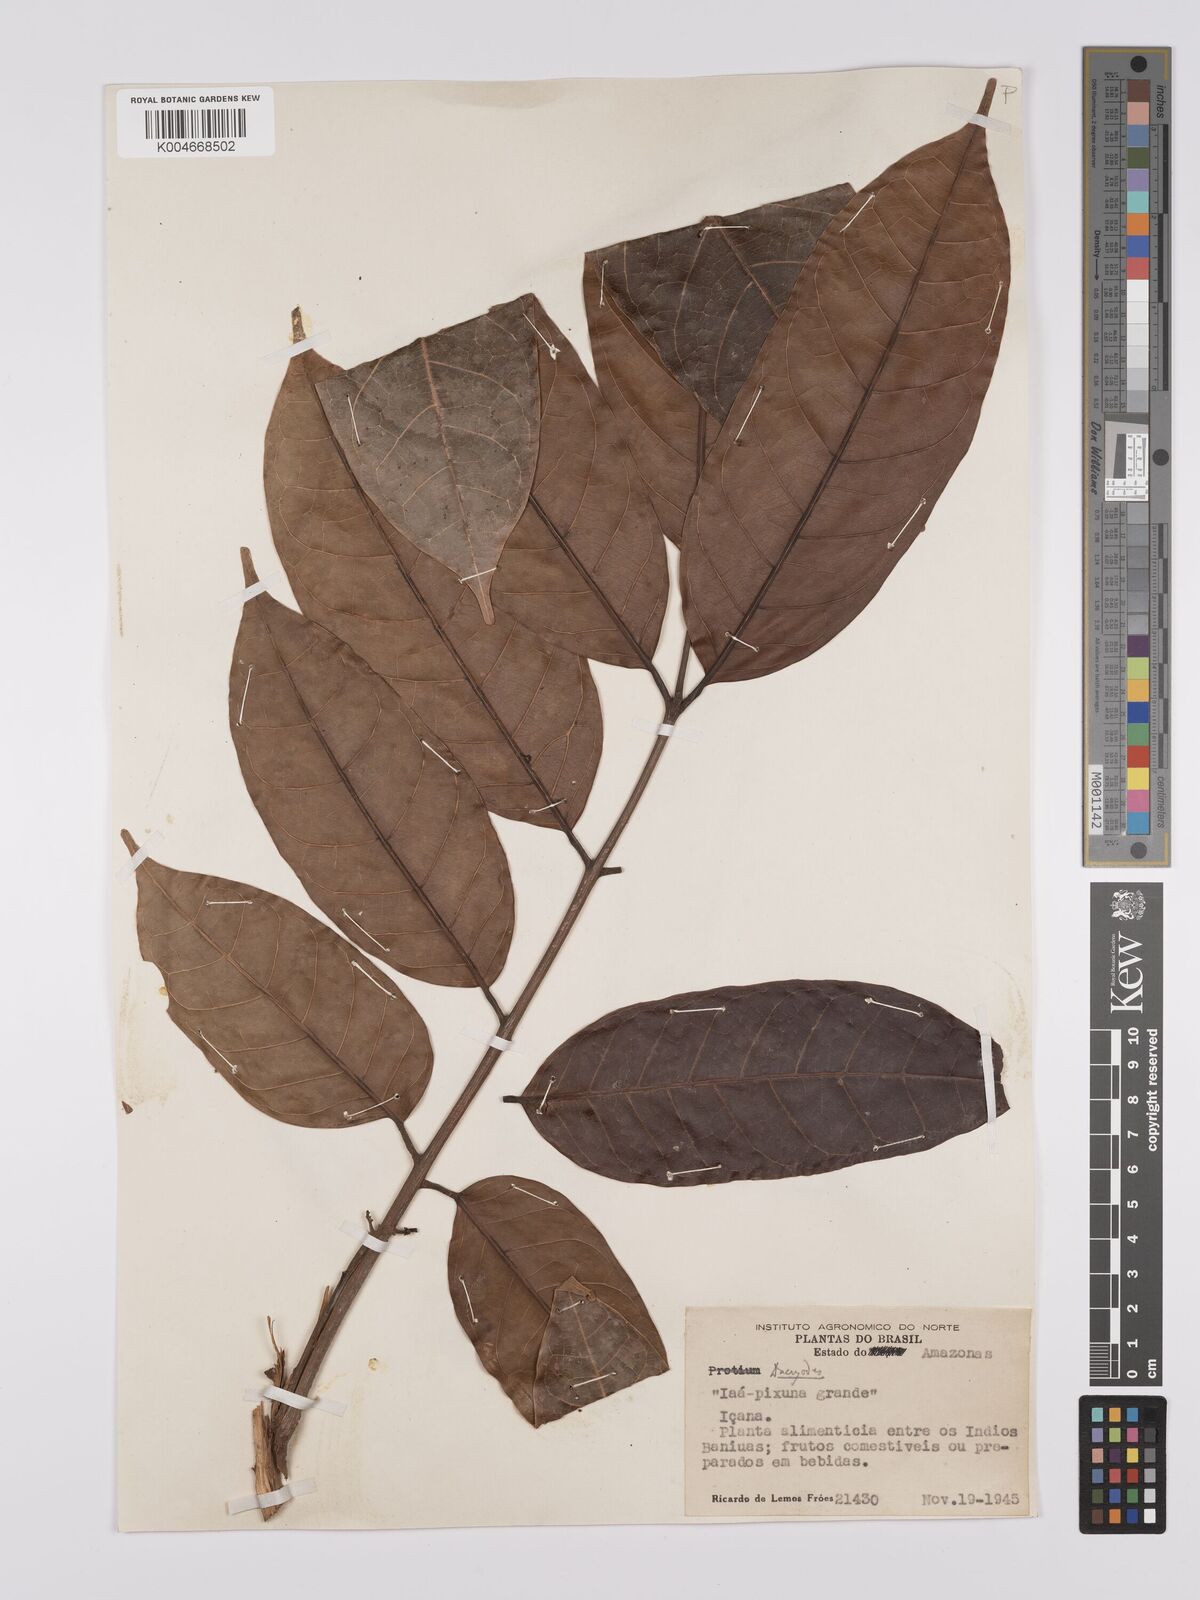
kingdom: Plantae
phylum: Tracheophyta
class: Magnoliopsida
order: Sapindales
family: Burseraceae
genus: Dacryodes
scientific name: Dacryodes
